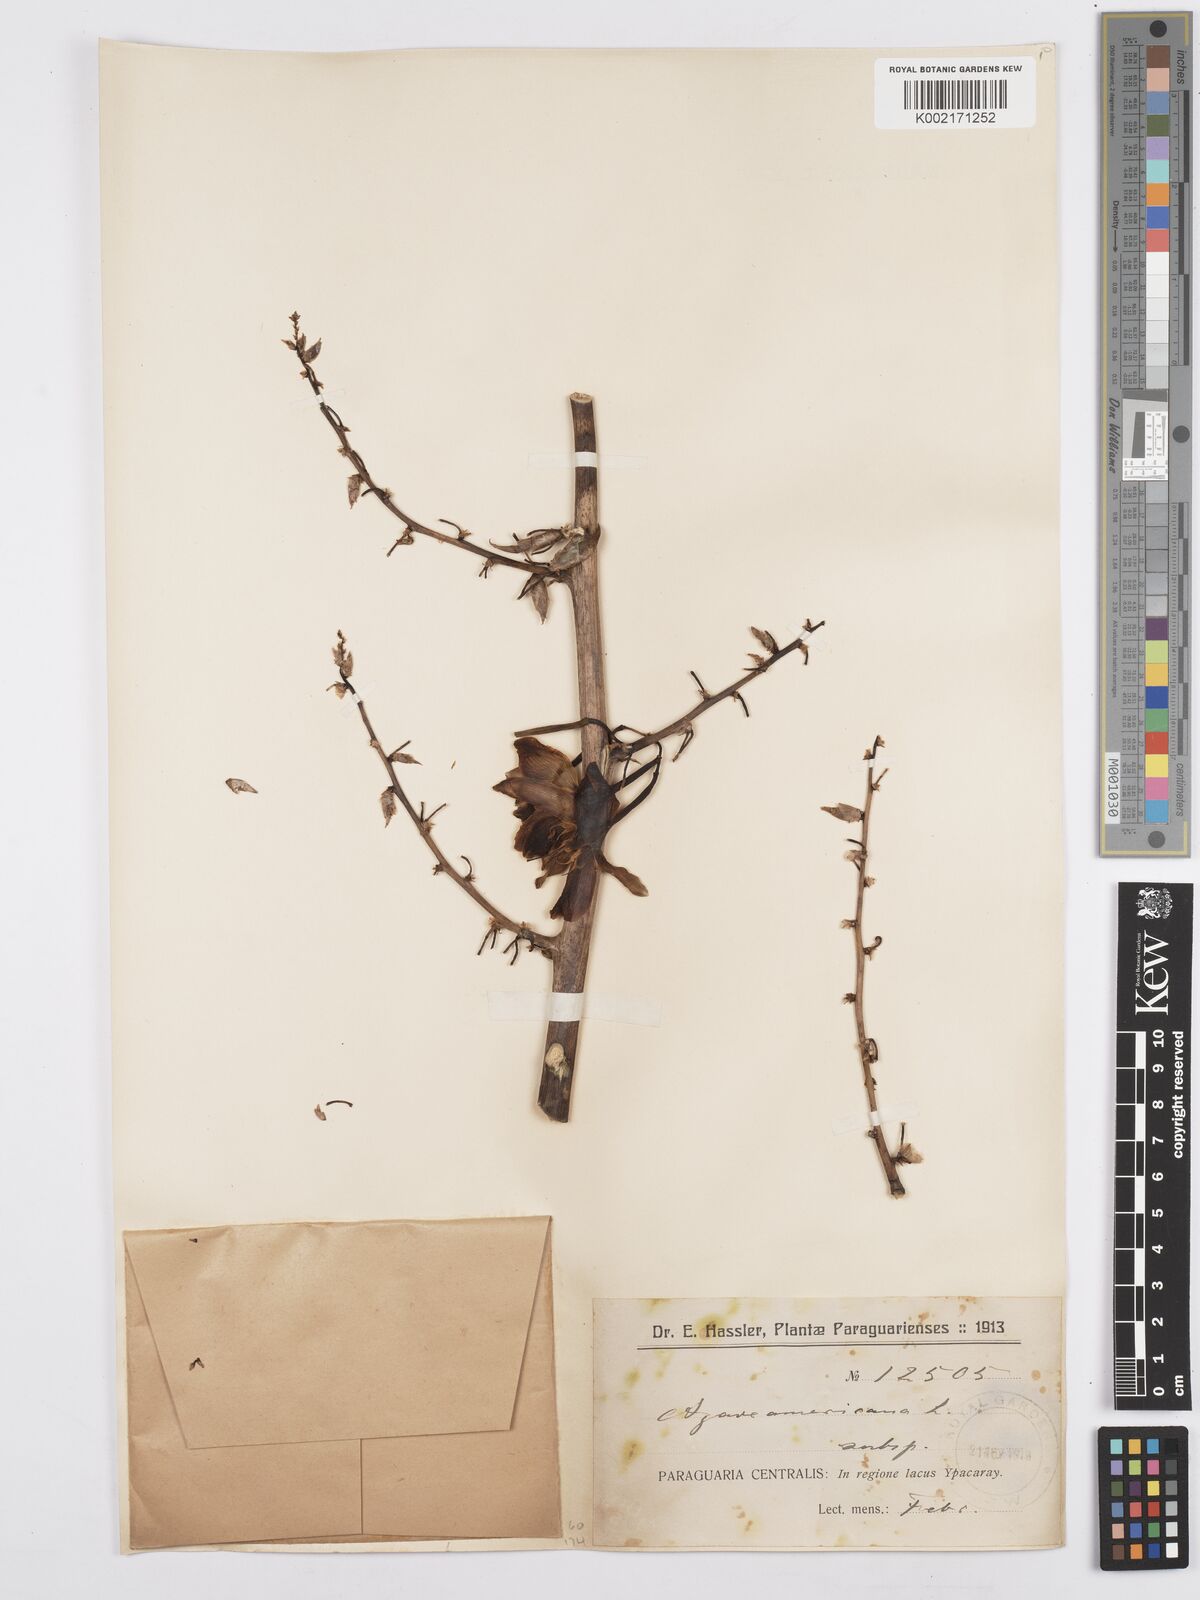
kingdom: Plantae
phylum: Tracheophyta
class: Liliopsida
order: Asparagales
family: Asparagaceae
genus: Agave
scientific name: Agave
